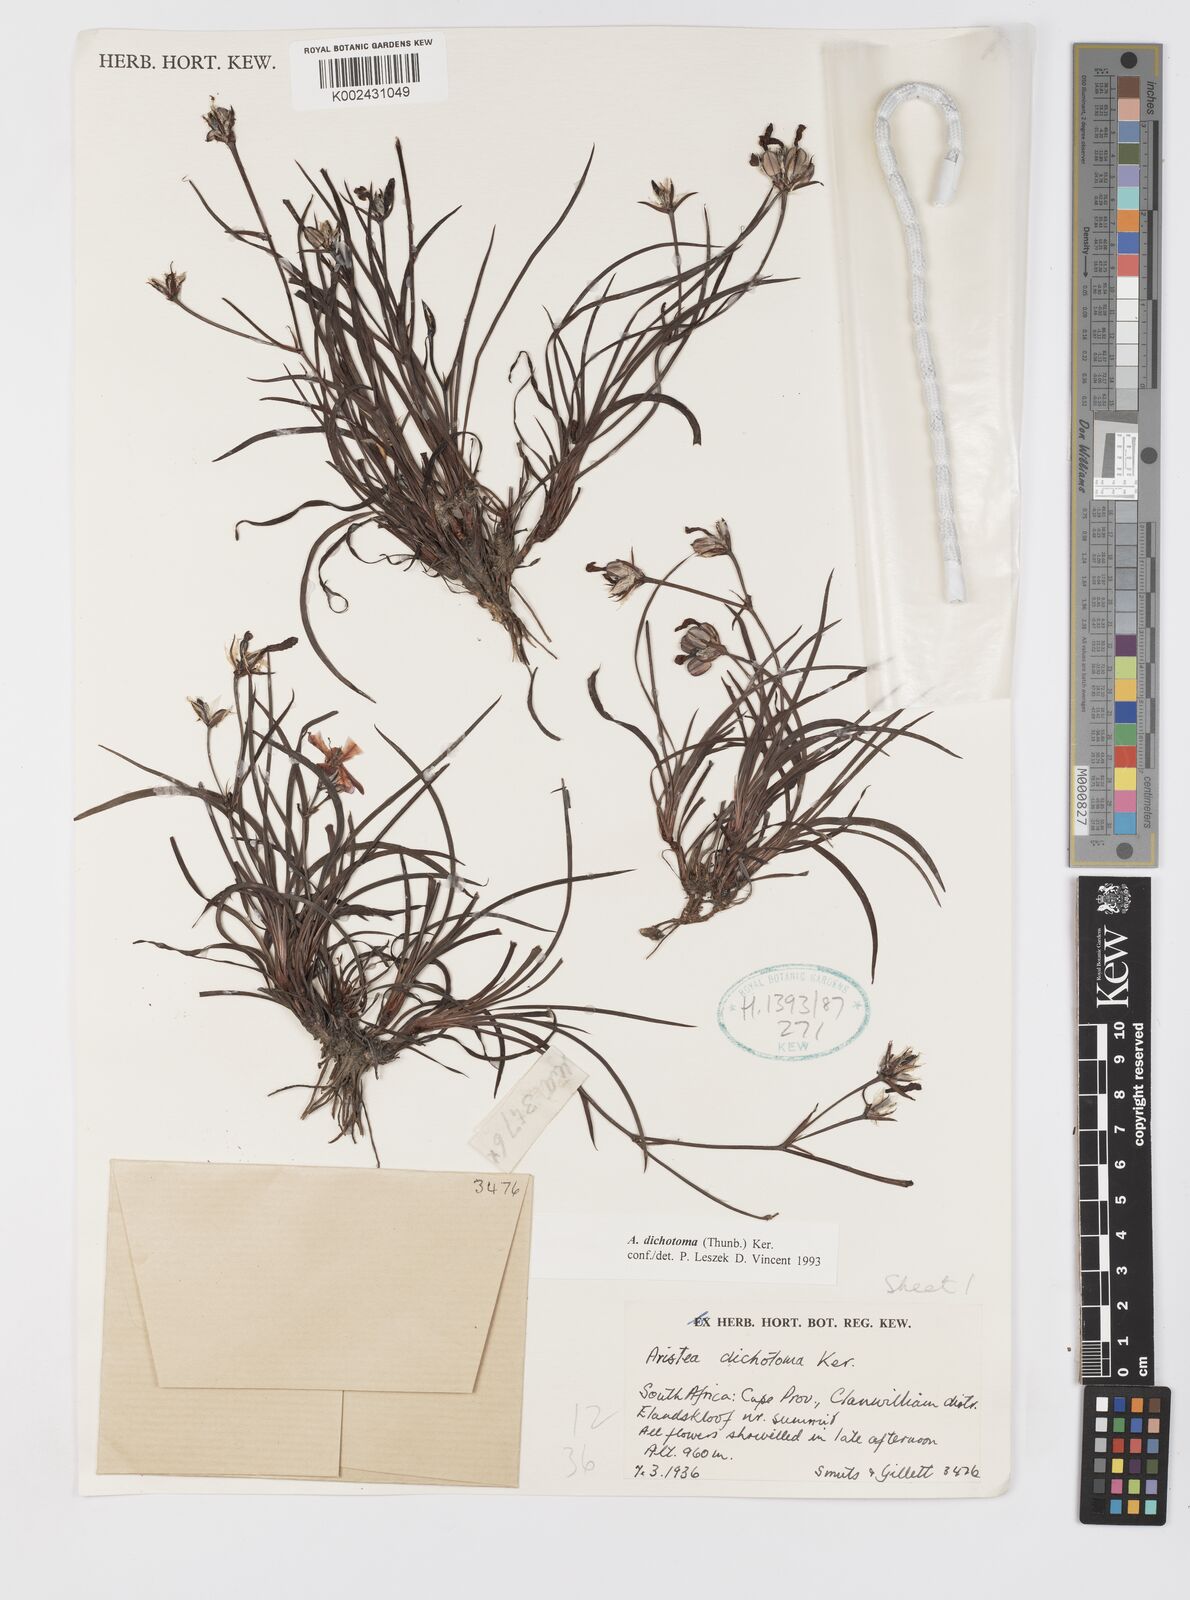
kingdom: Plantae
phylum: Tracheophyta
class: Liliopsida
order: Asparagales
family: Iridaceae
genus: Aristea
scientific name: Aristea dichotoma
